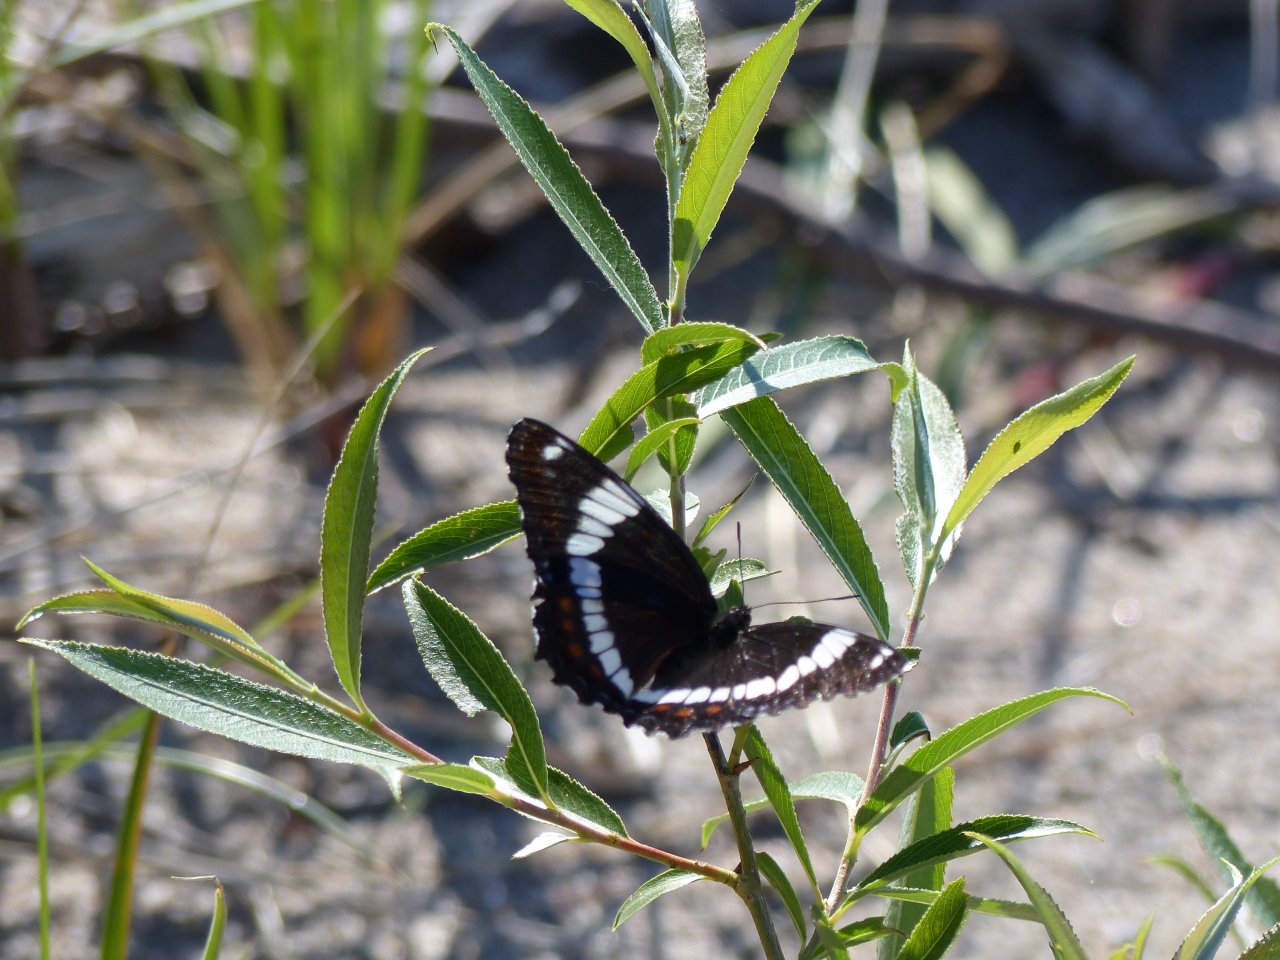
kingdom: Animalia
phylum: Arthropoda
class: Insecta
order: Lepidoptera
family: Nymphalidae
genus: Limenitis
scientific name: Limenitis arthemis
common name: Red-spotted Admiral
